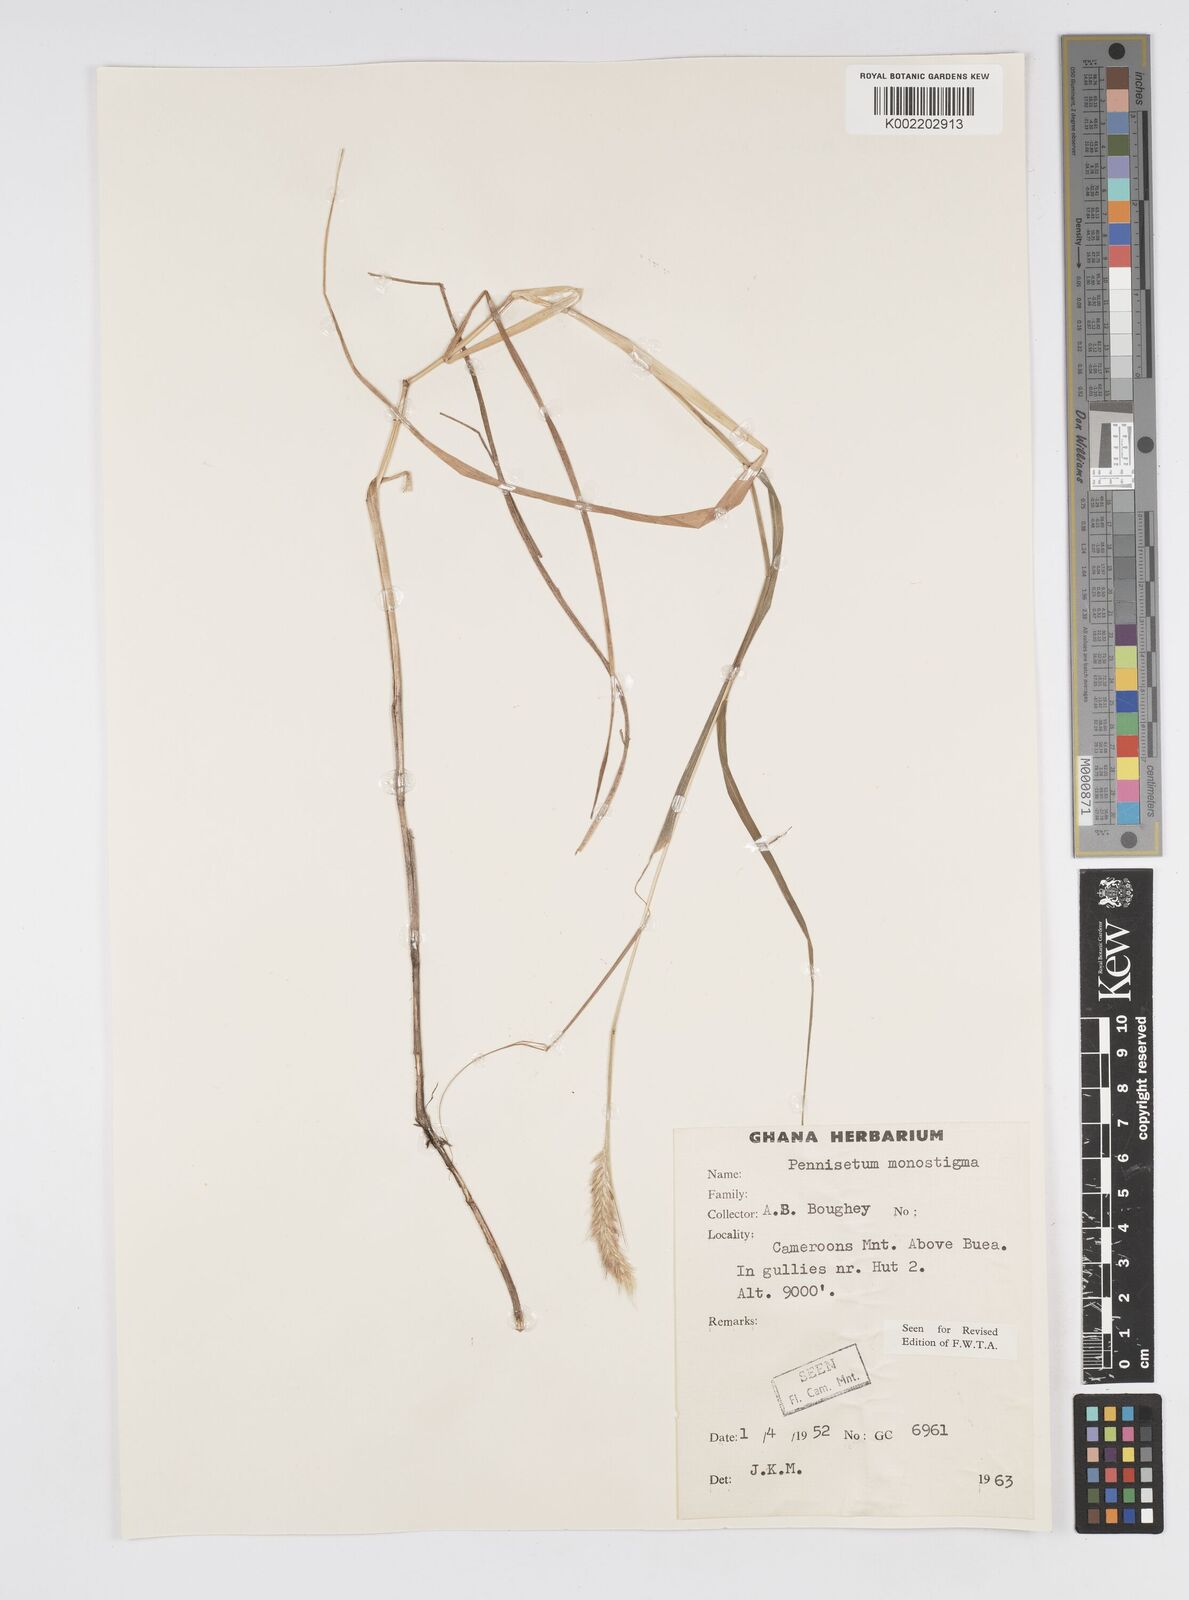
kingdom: Plantae
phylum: Tracheophyta
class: Liliopsida
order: Poales
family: Poaceae
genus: Cenchrus
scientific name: Cenchrus monostigma
